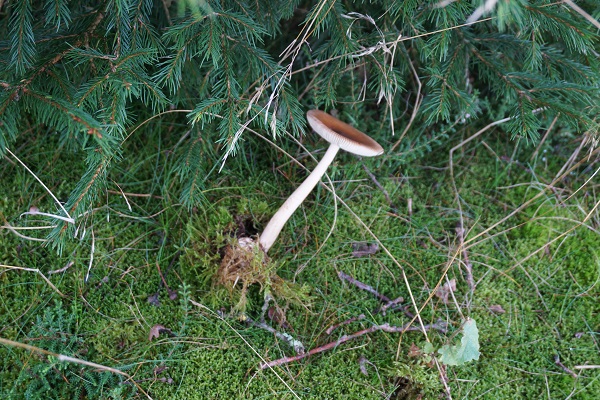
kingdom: Fungi
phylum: Basidiomycota
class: Agaricomycetes
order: Agaricales
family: Amanitaceae
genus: Amanita
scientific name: Amanita fulva
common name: brun kam-fluesvamp
